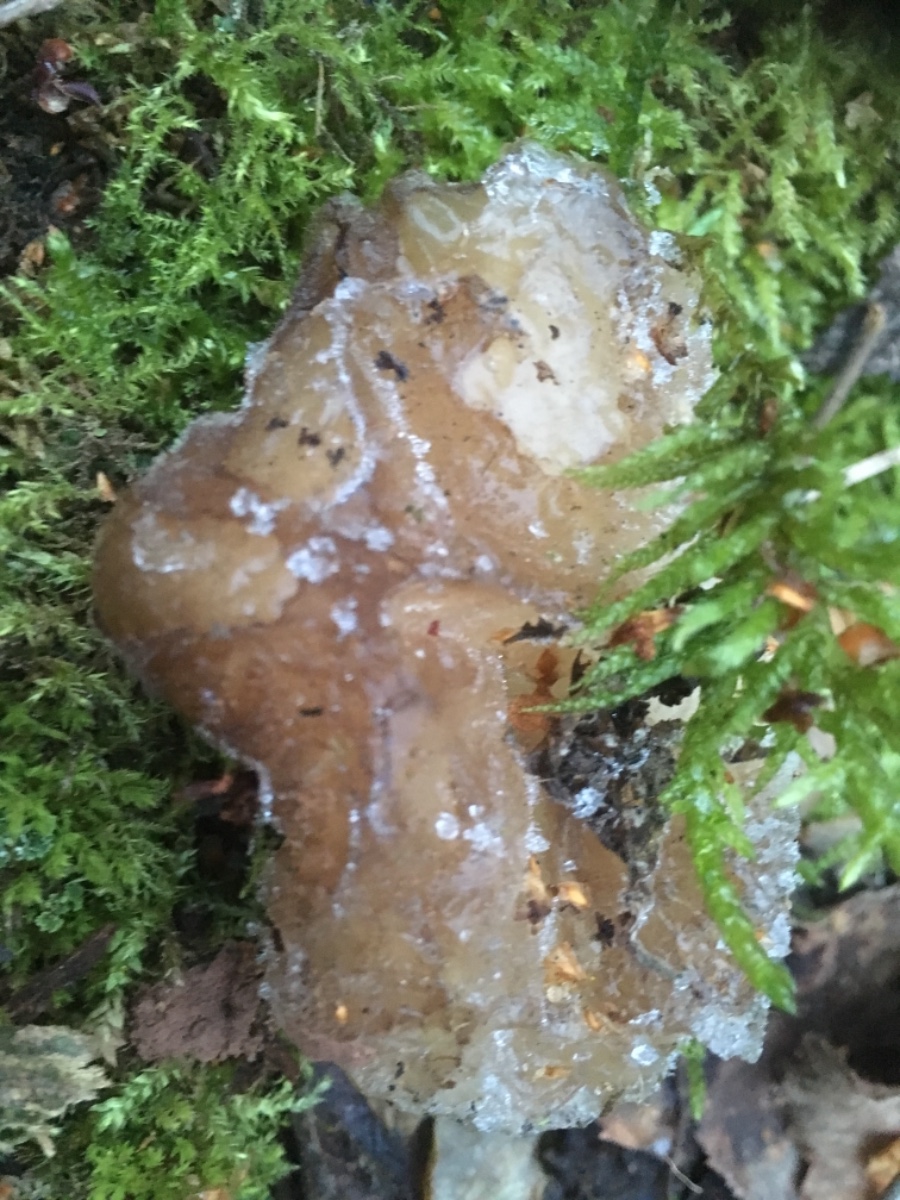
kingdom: Fungi
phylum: Basidiomycota
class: Agaricomycetes
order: Auriculariales
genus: Pseudohydnum
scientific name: Pseudohydnum gelatinosum
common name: bævretand
